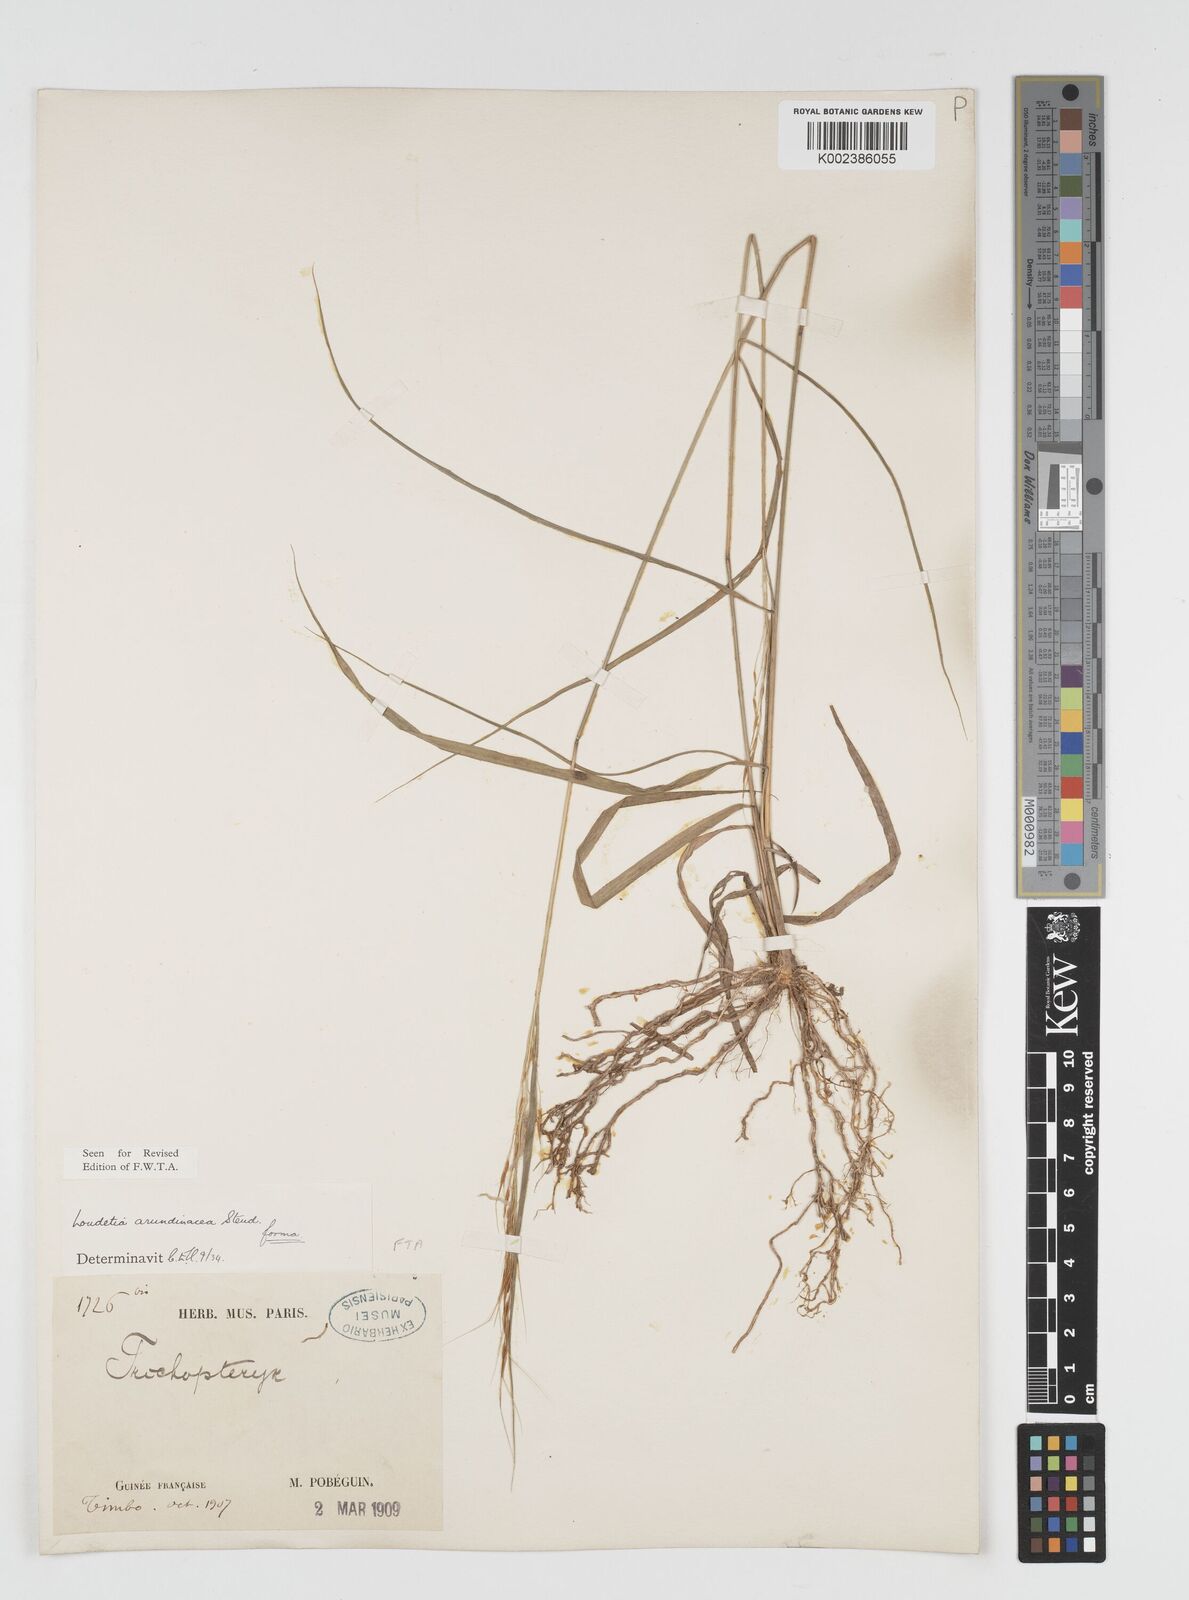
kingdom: Plantae
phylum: Tracheophyta
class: Liliopsida
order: Poales
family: Poaceae
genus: Loudetia
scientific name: Loudetia arundinacea
